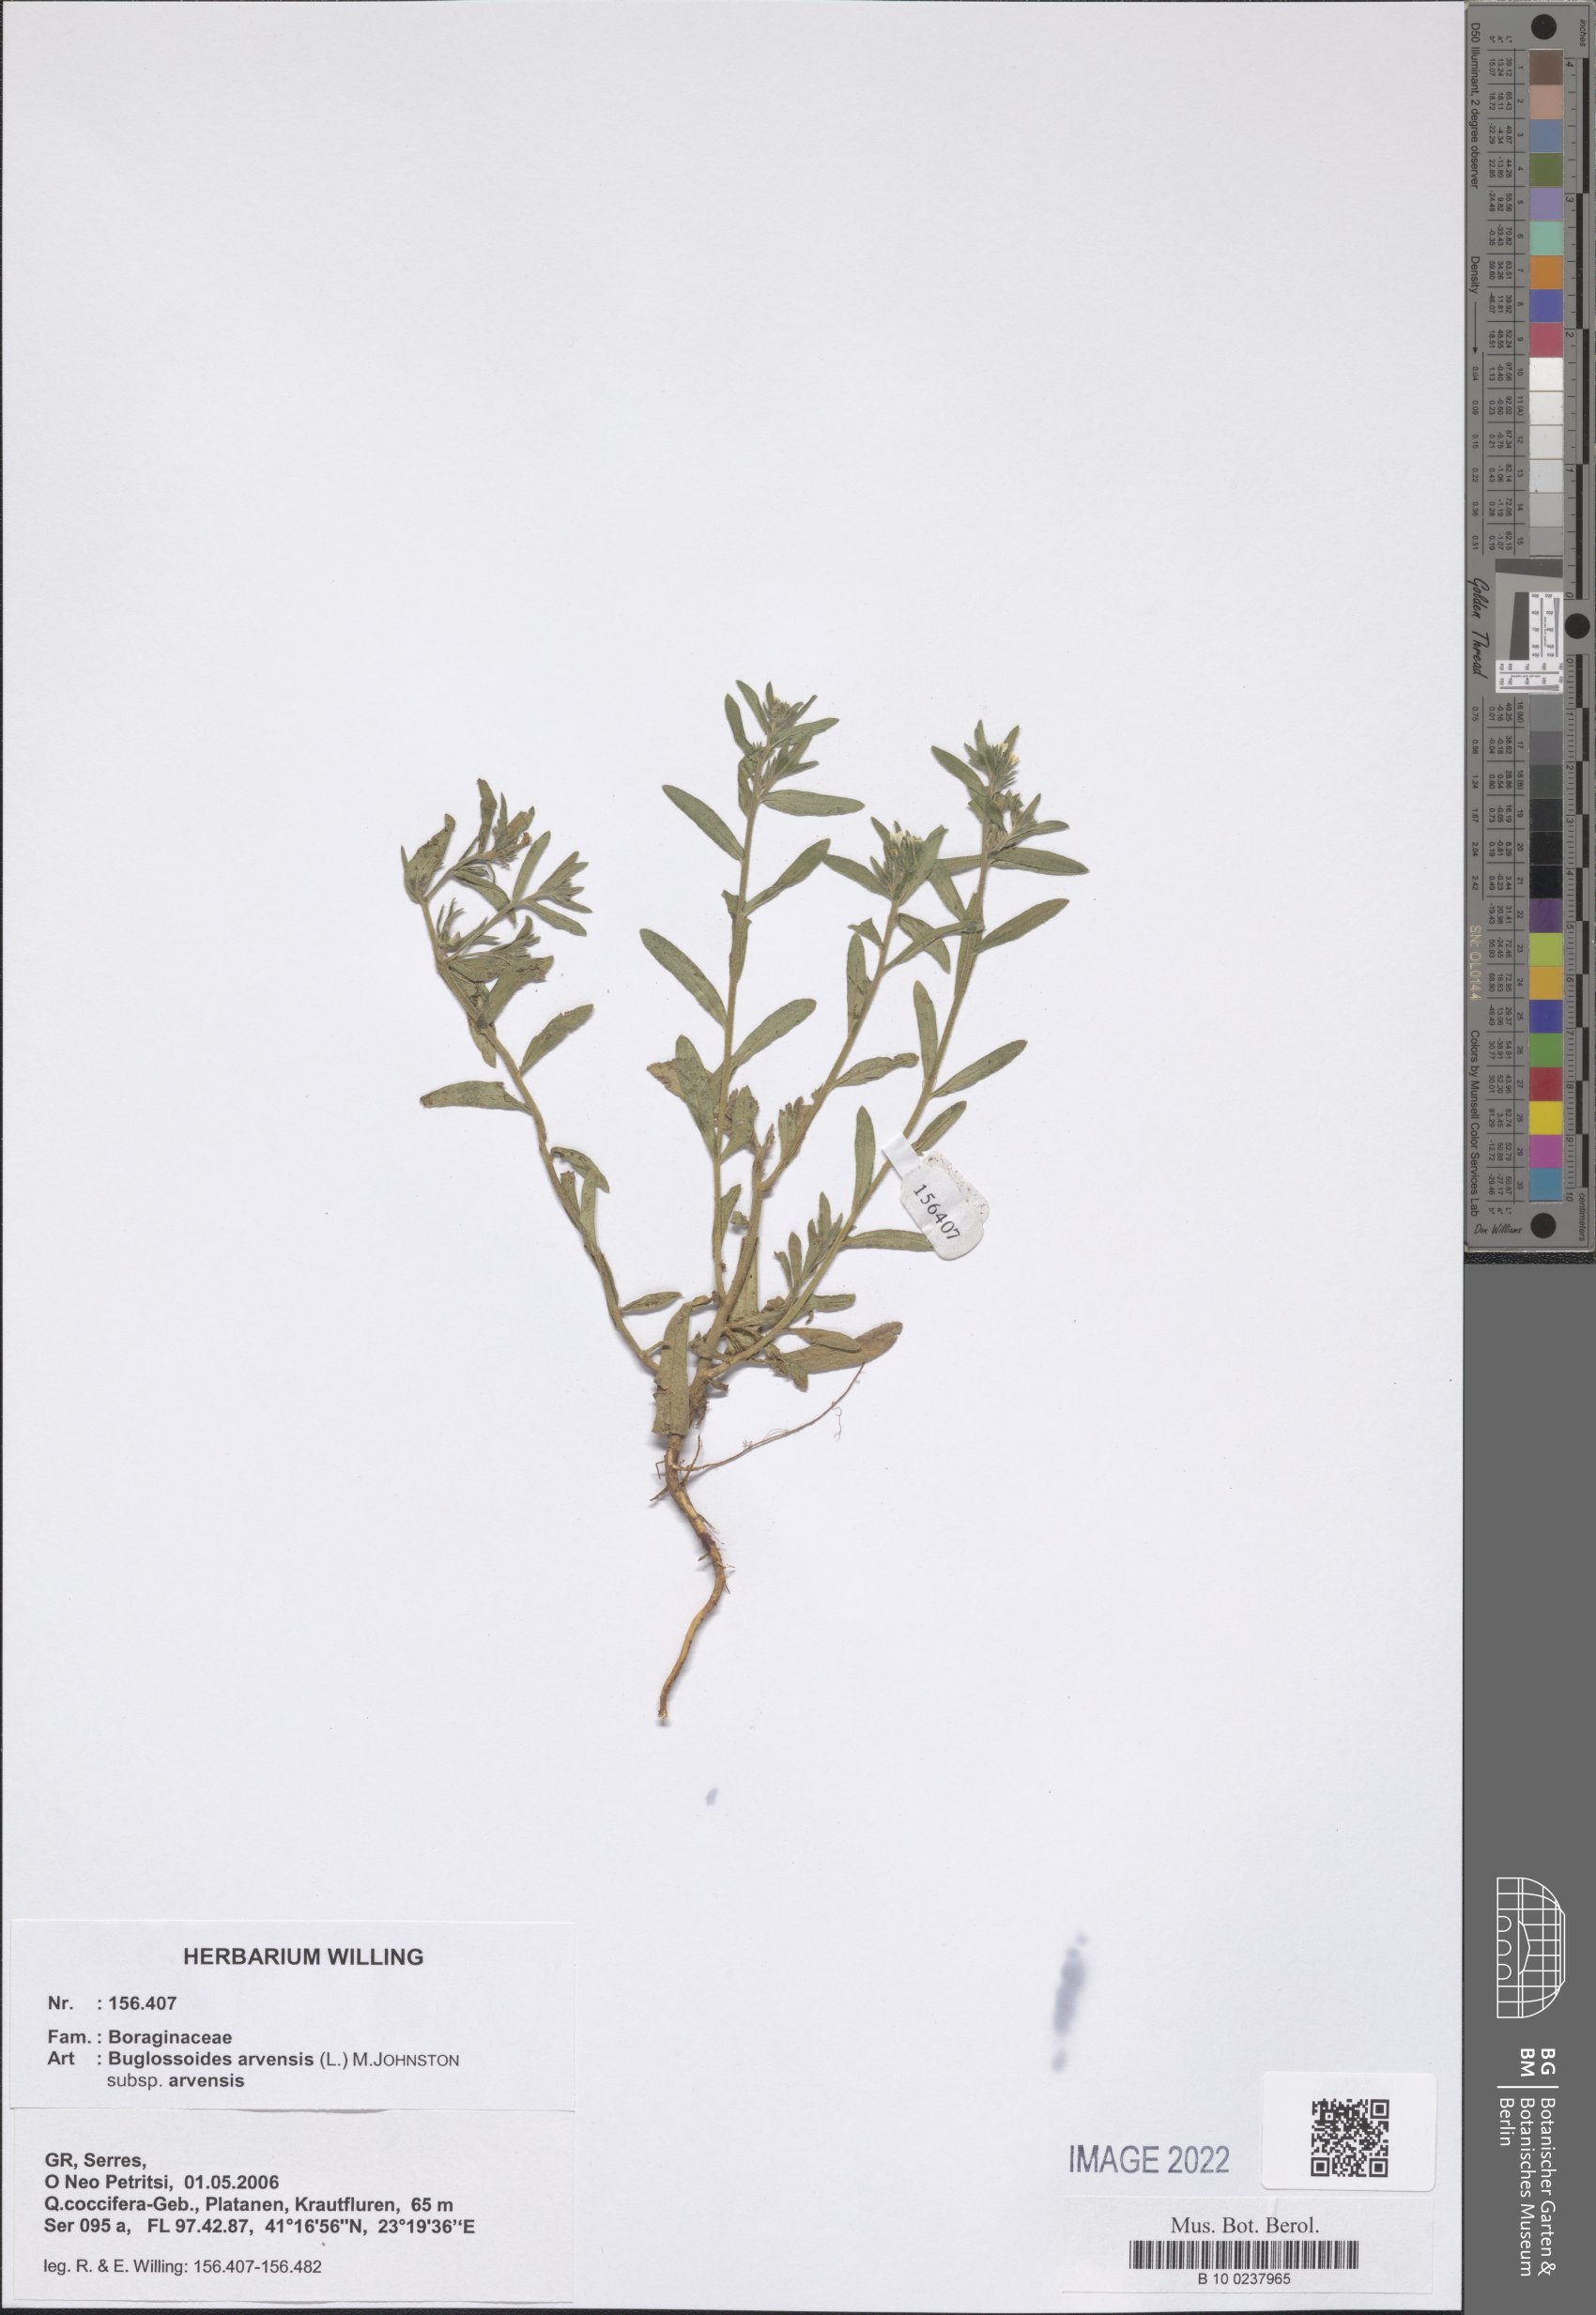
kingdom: Plantae
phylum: Tracheophyta
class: Magnoliopsida
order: Boraginales
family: Boraginaceae
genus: Buglossoides
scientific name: Buglossoides arvensis
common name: Corn gromwell
